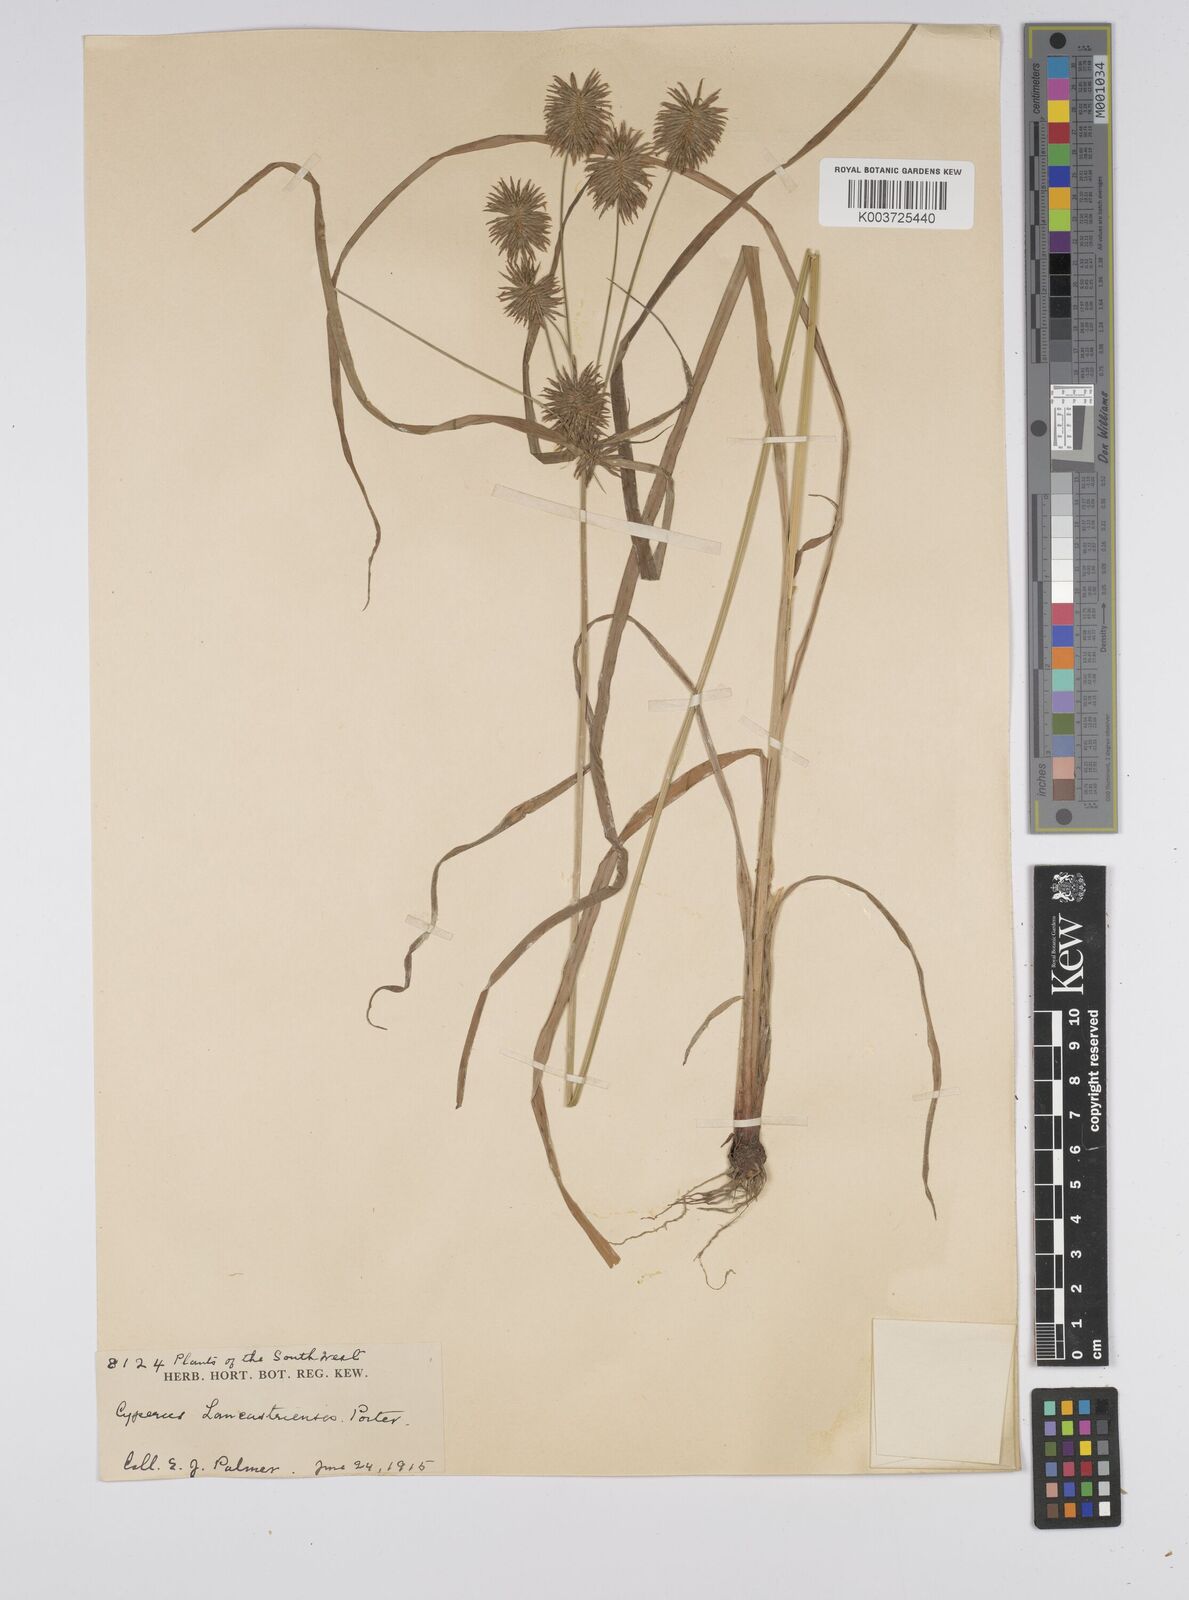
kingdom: Plantae
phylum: Tracheophyta
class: Liliopsida
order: Poales
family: Cyperaceae
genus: Cyperus
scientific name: Cyperus lancastriensis
